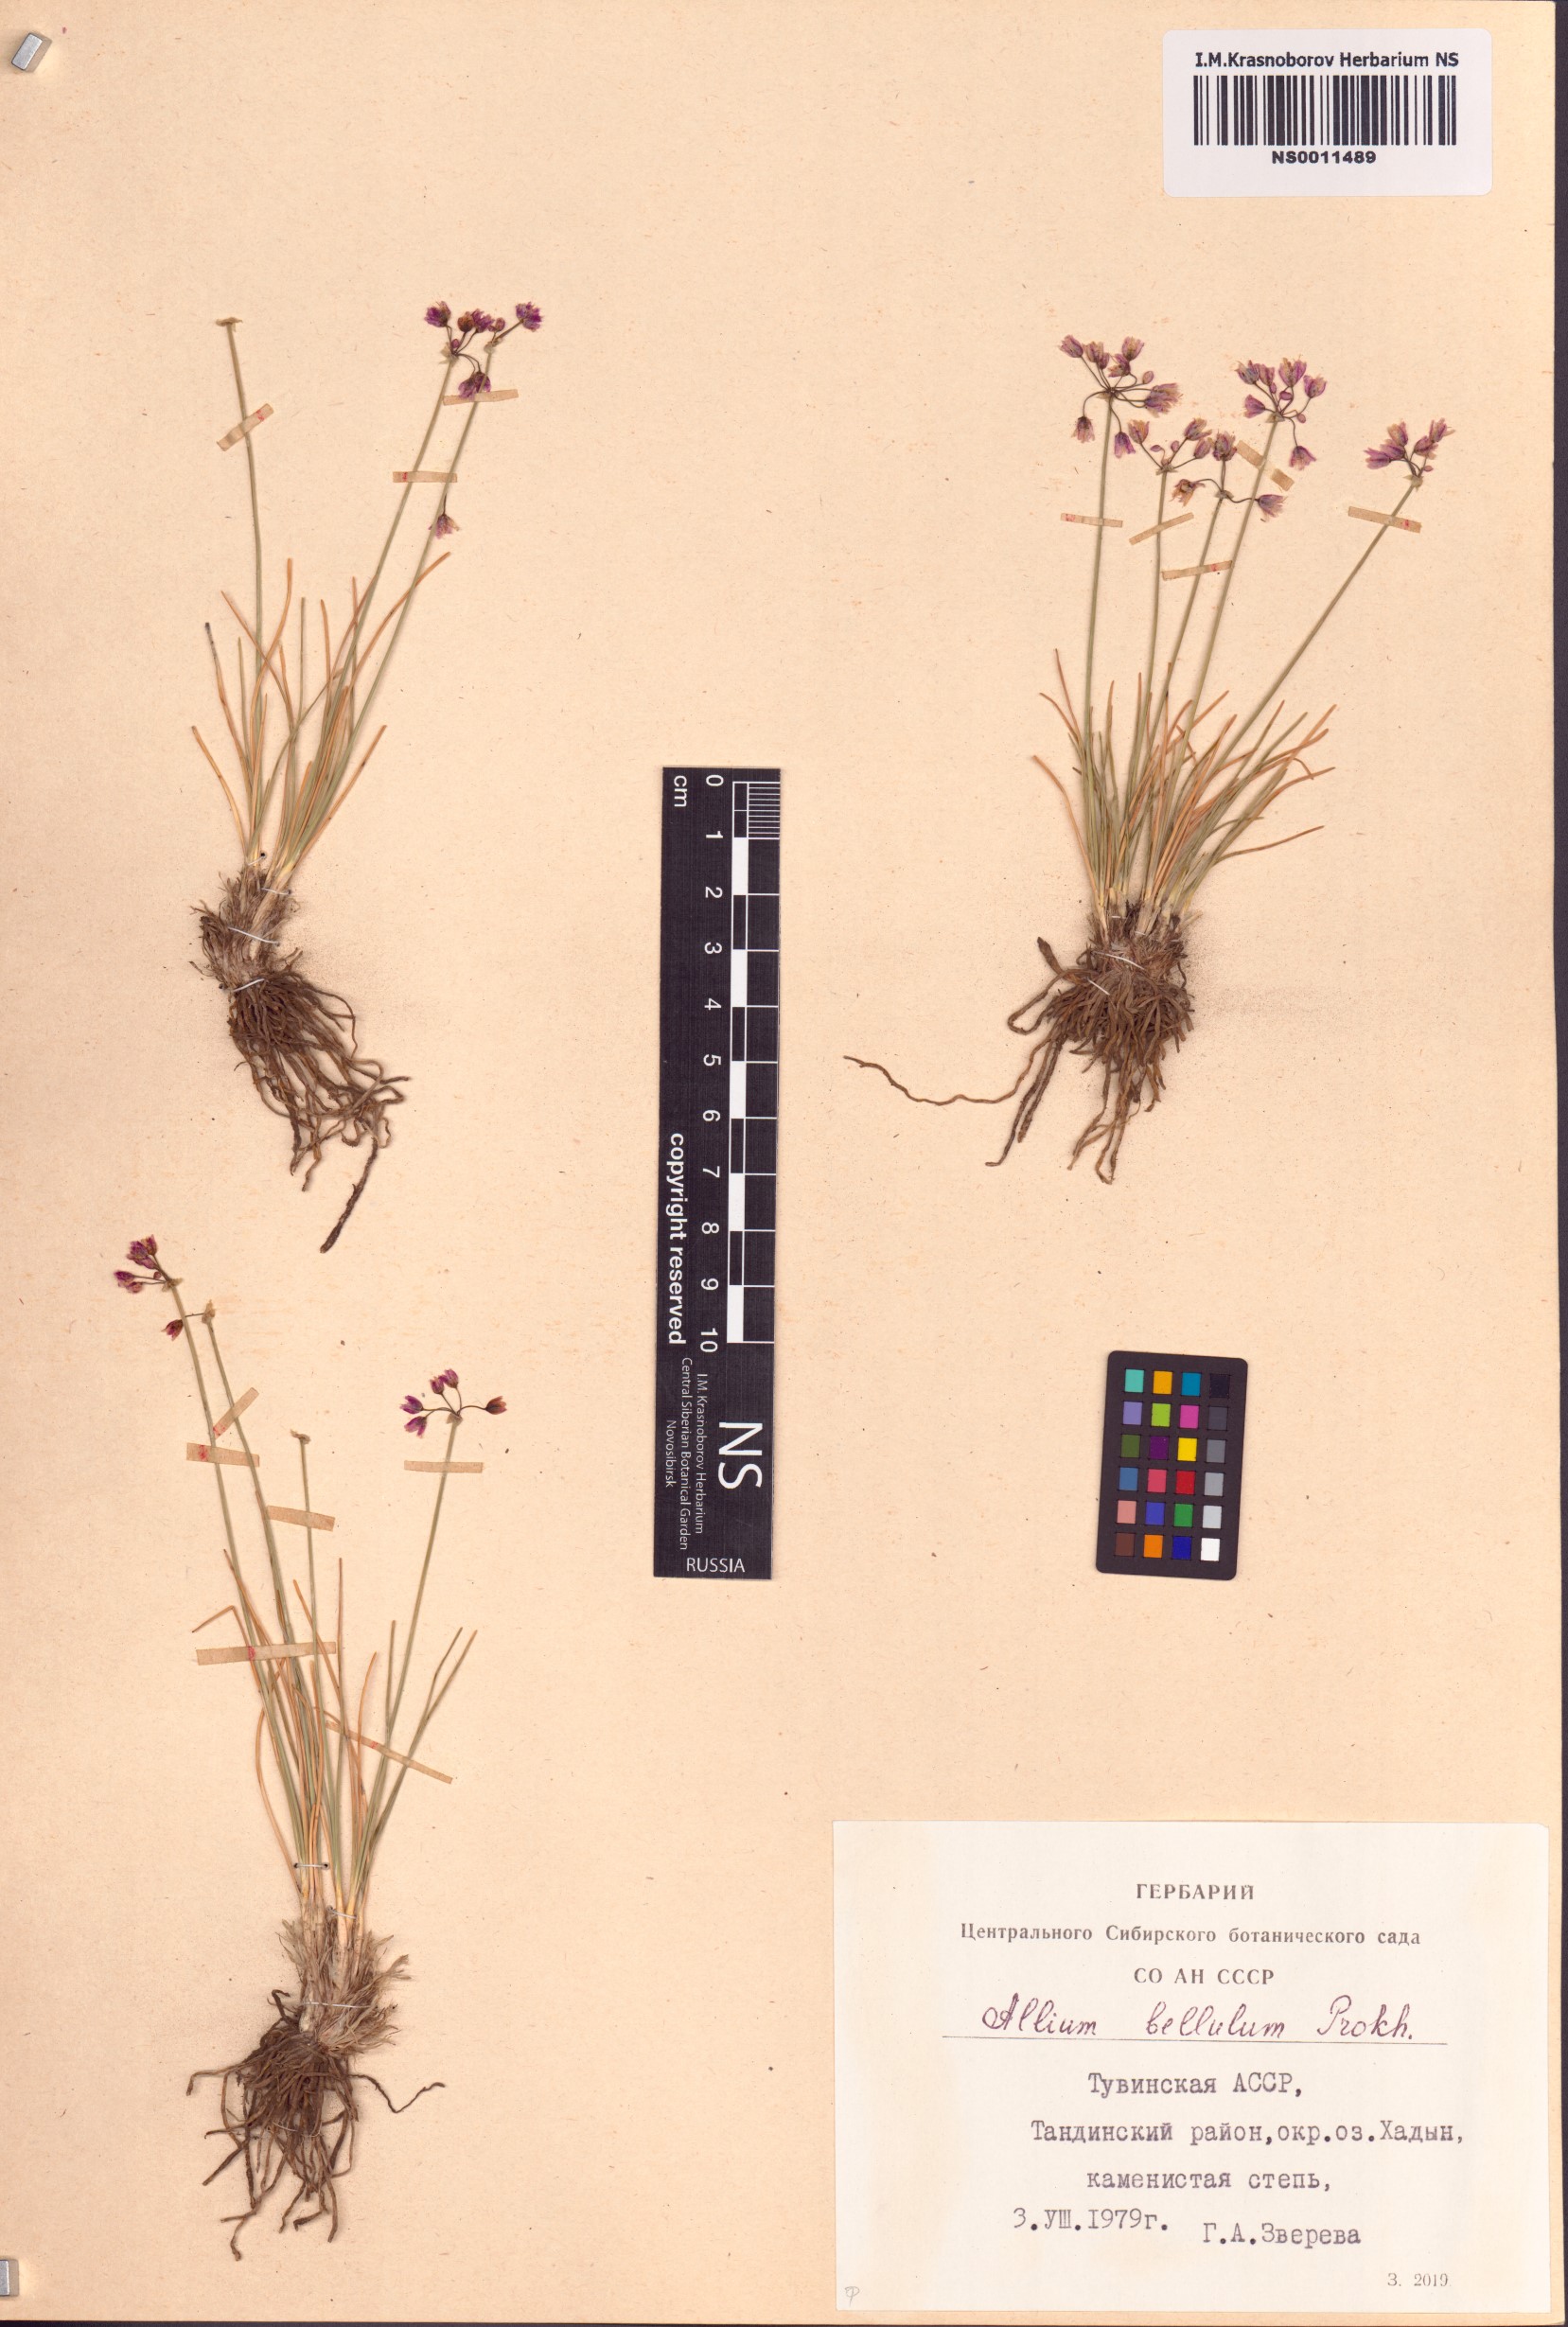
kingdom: Plantae
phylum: Tracheophyta
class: Liliopsida
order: Asparagales
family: Amaryllidaceae
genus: Allium
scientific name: Allium bellulum
